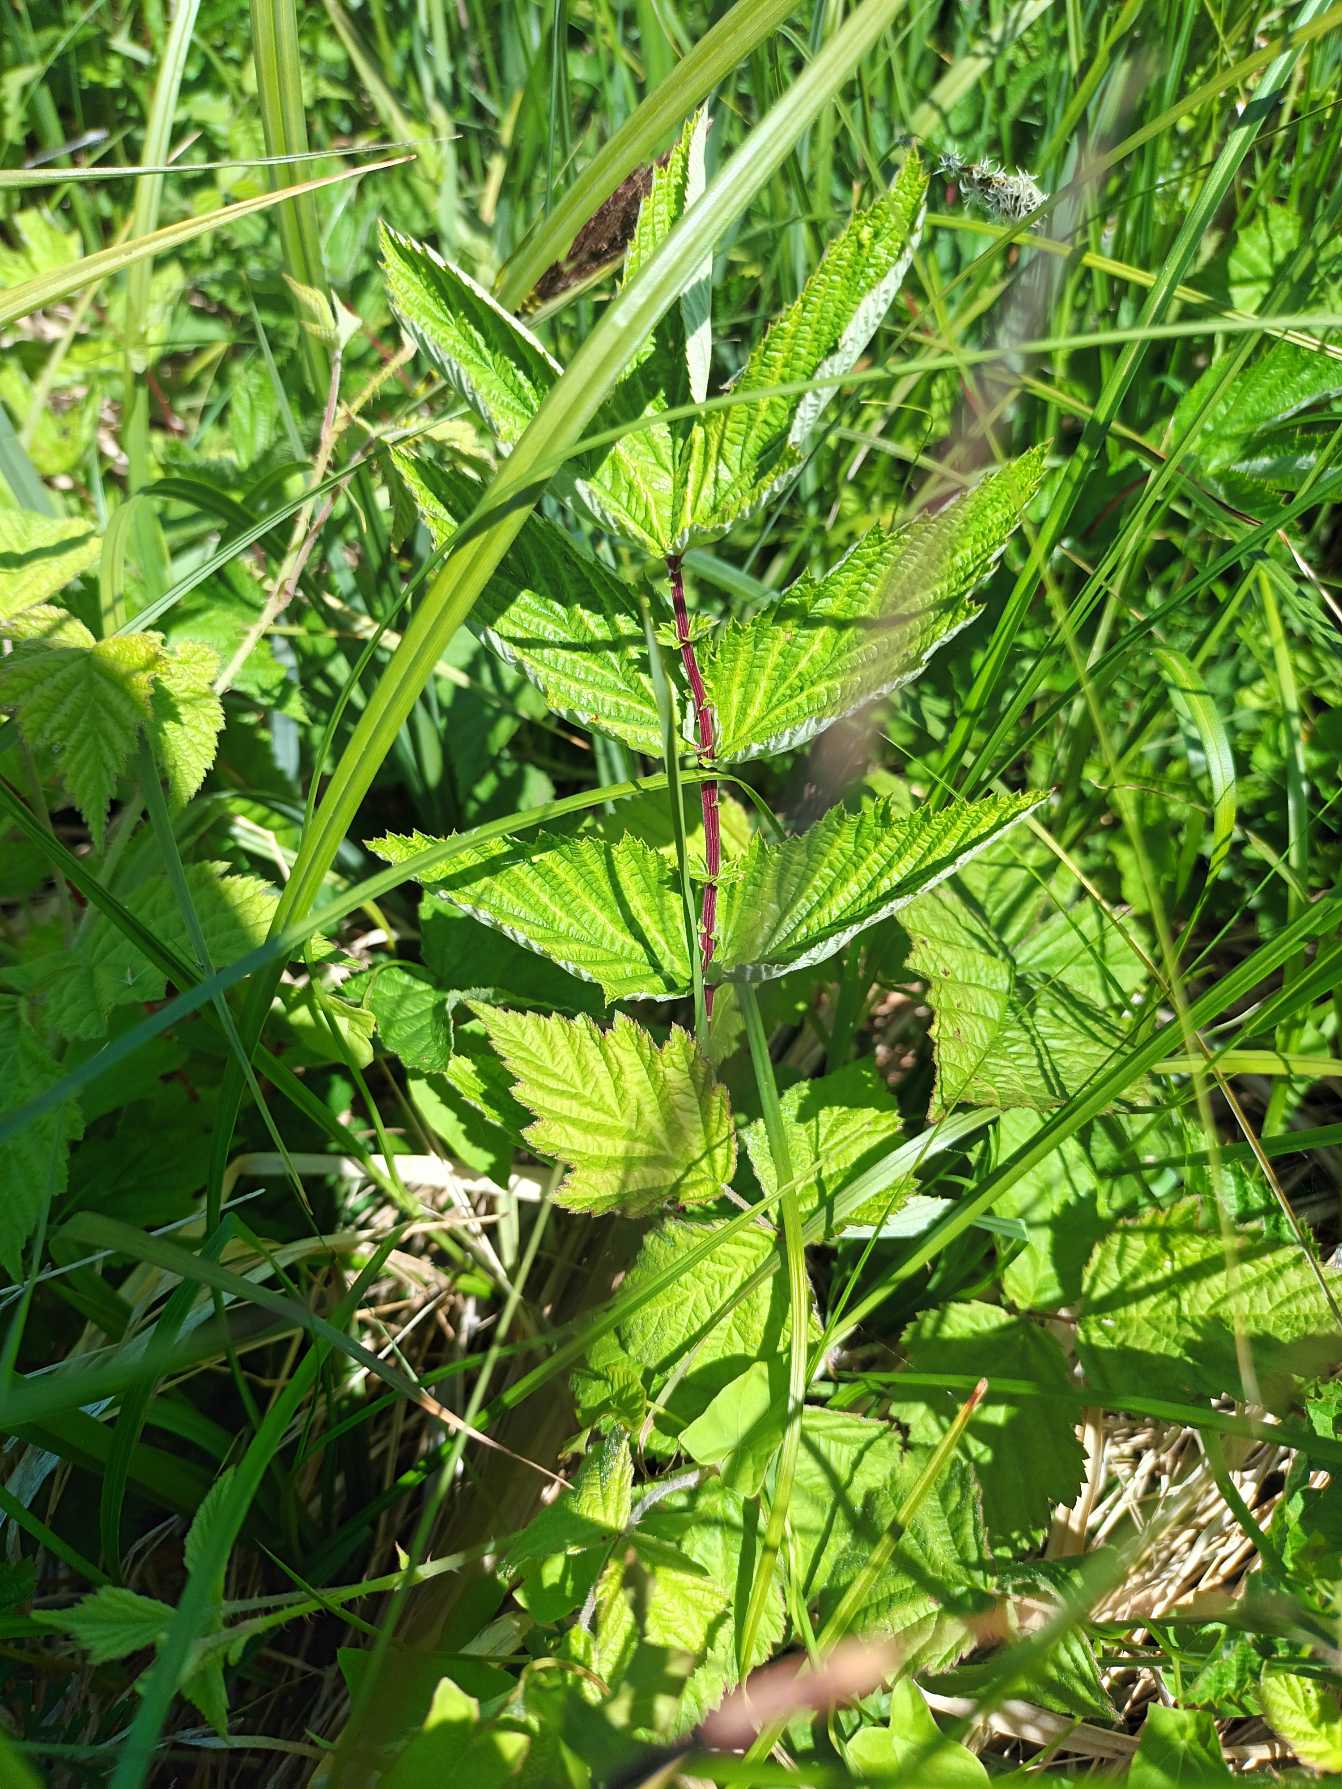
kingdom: Plantae
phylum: Tracheophyta
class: Magnoliopsida
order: Rosales
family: Rosaceae
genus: Filipendula
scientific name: Filipendula ulmaria
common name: Almindelig mjødurt
